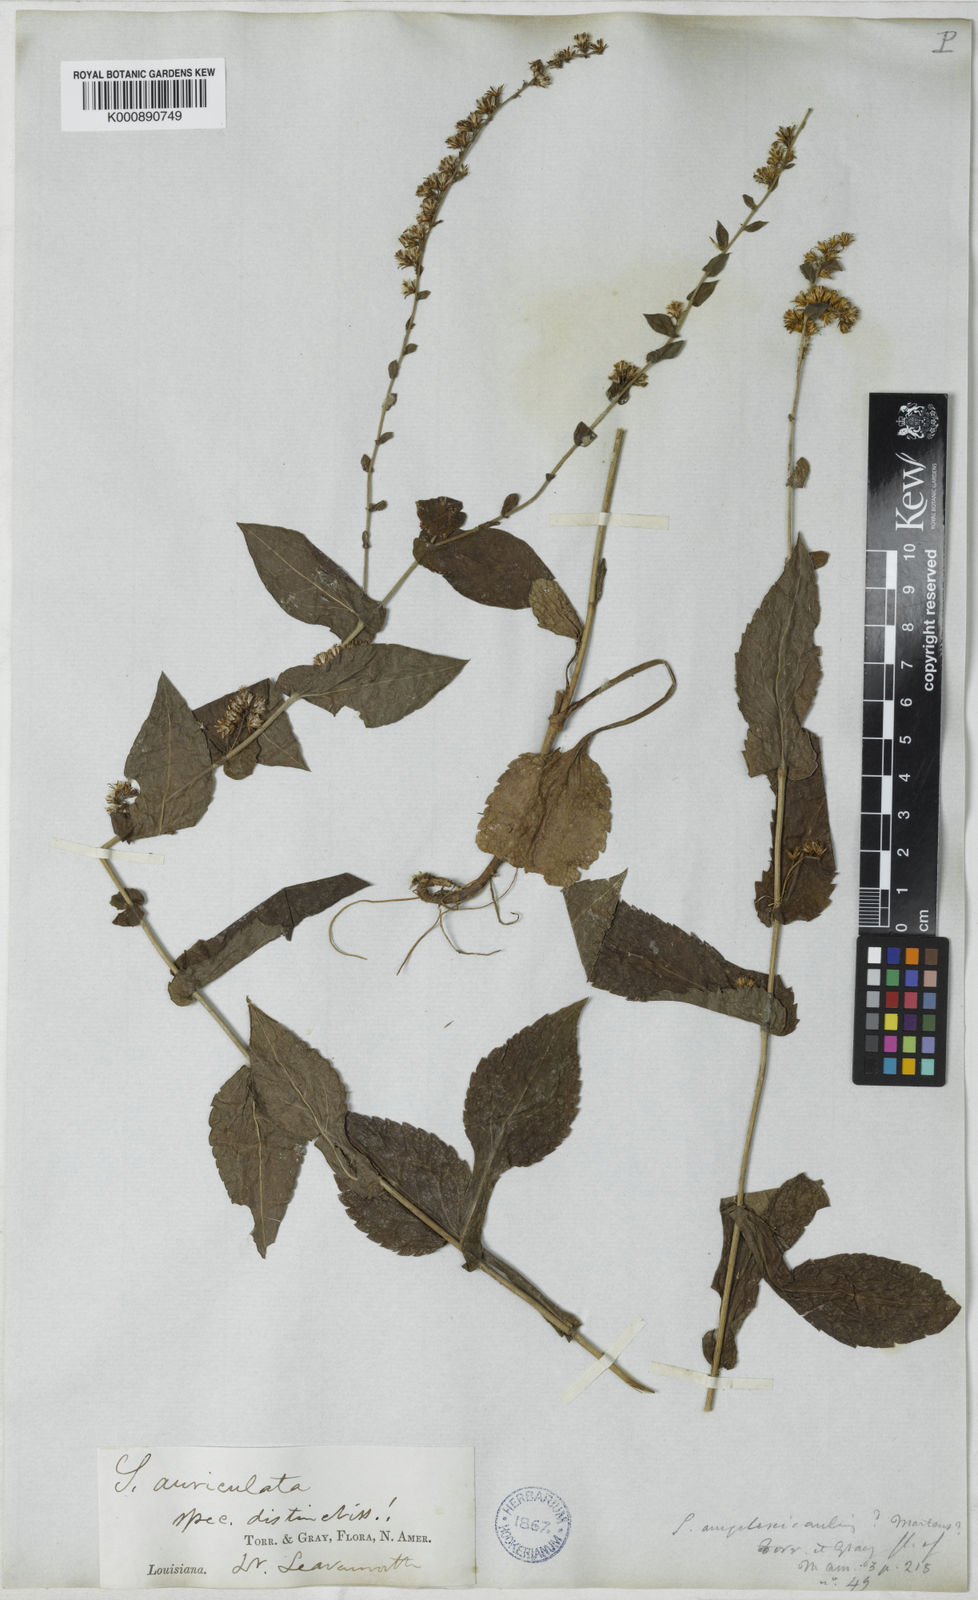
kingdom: Plantae
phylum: Tracheophyta
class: Magnoliopsida
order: Asterales
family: Asteraceae
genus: Solidago
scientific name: Solidago auriculata
